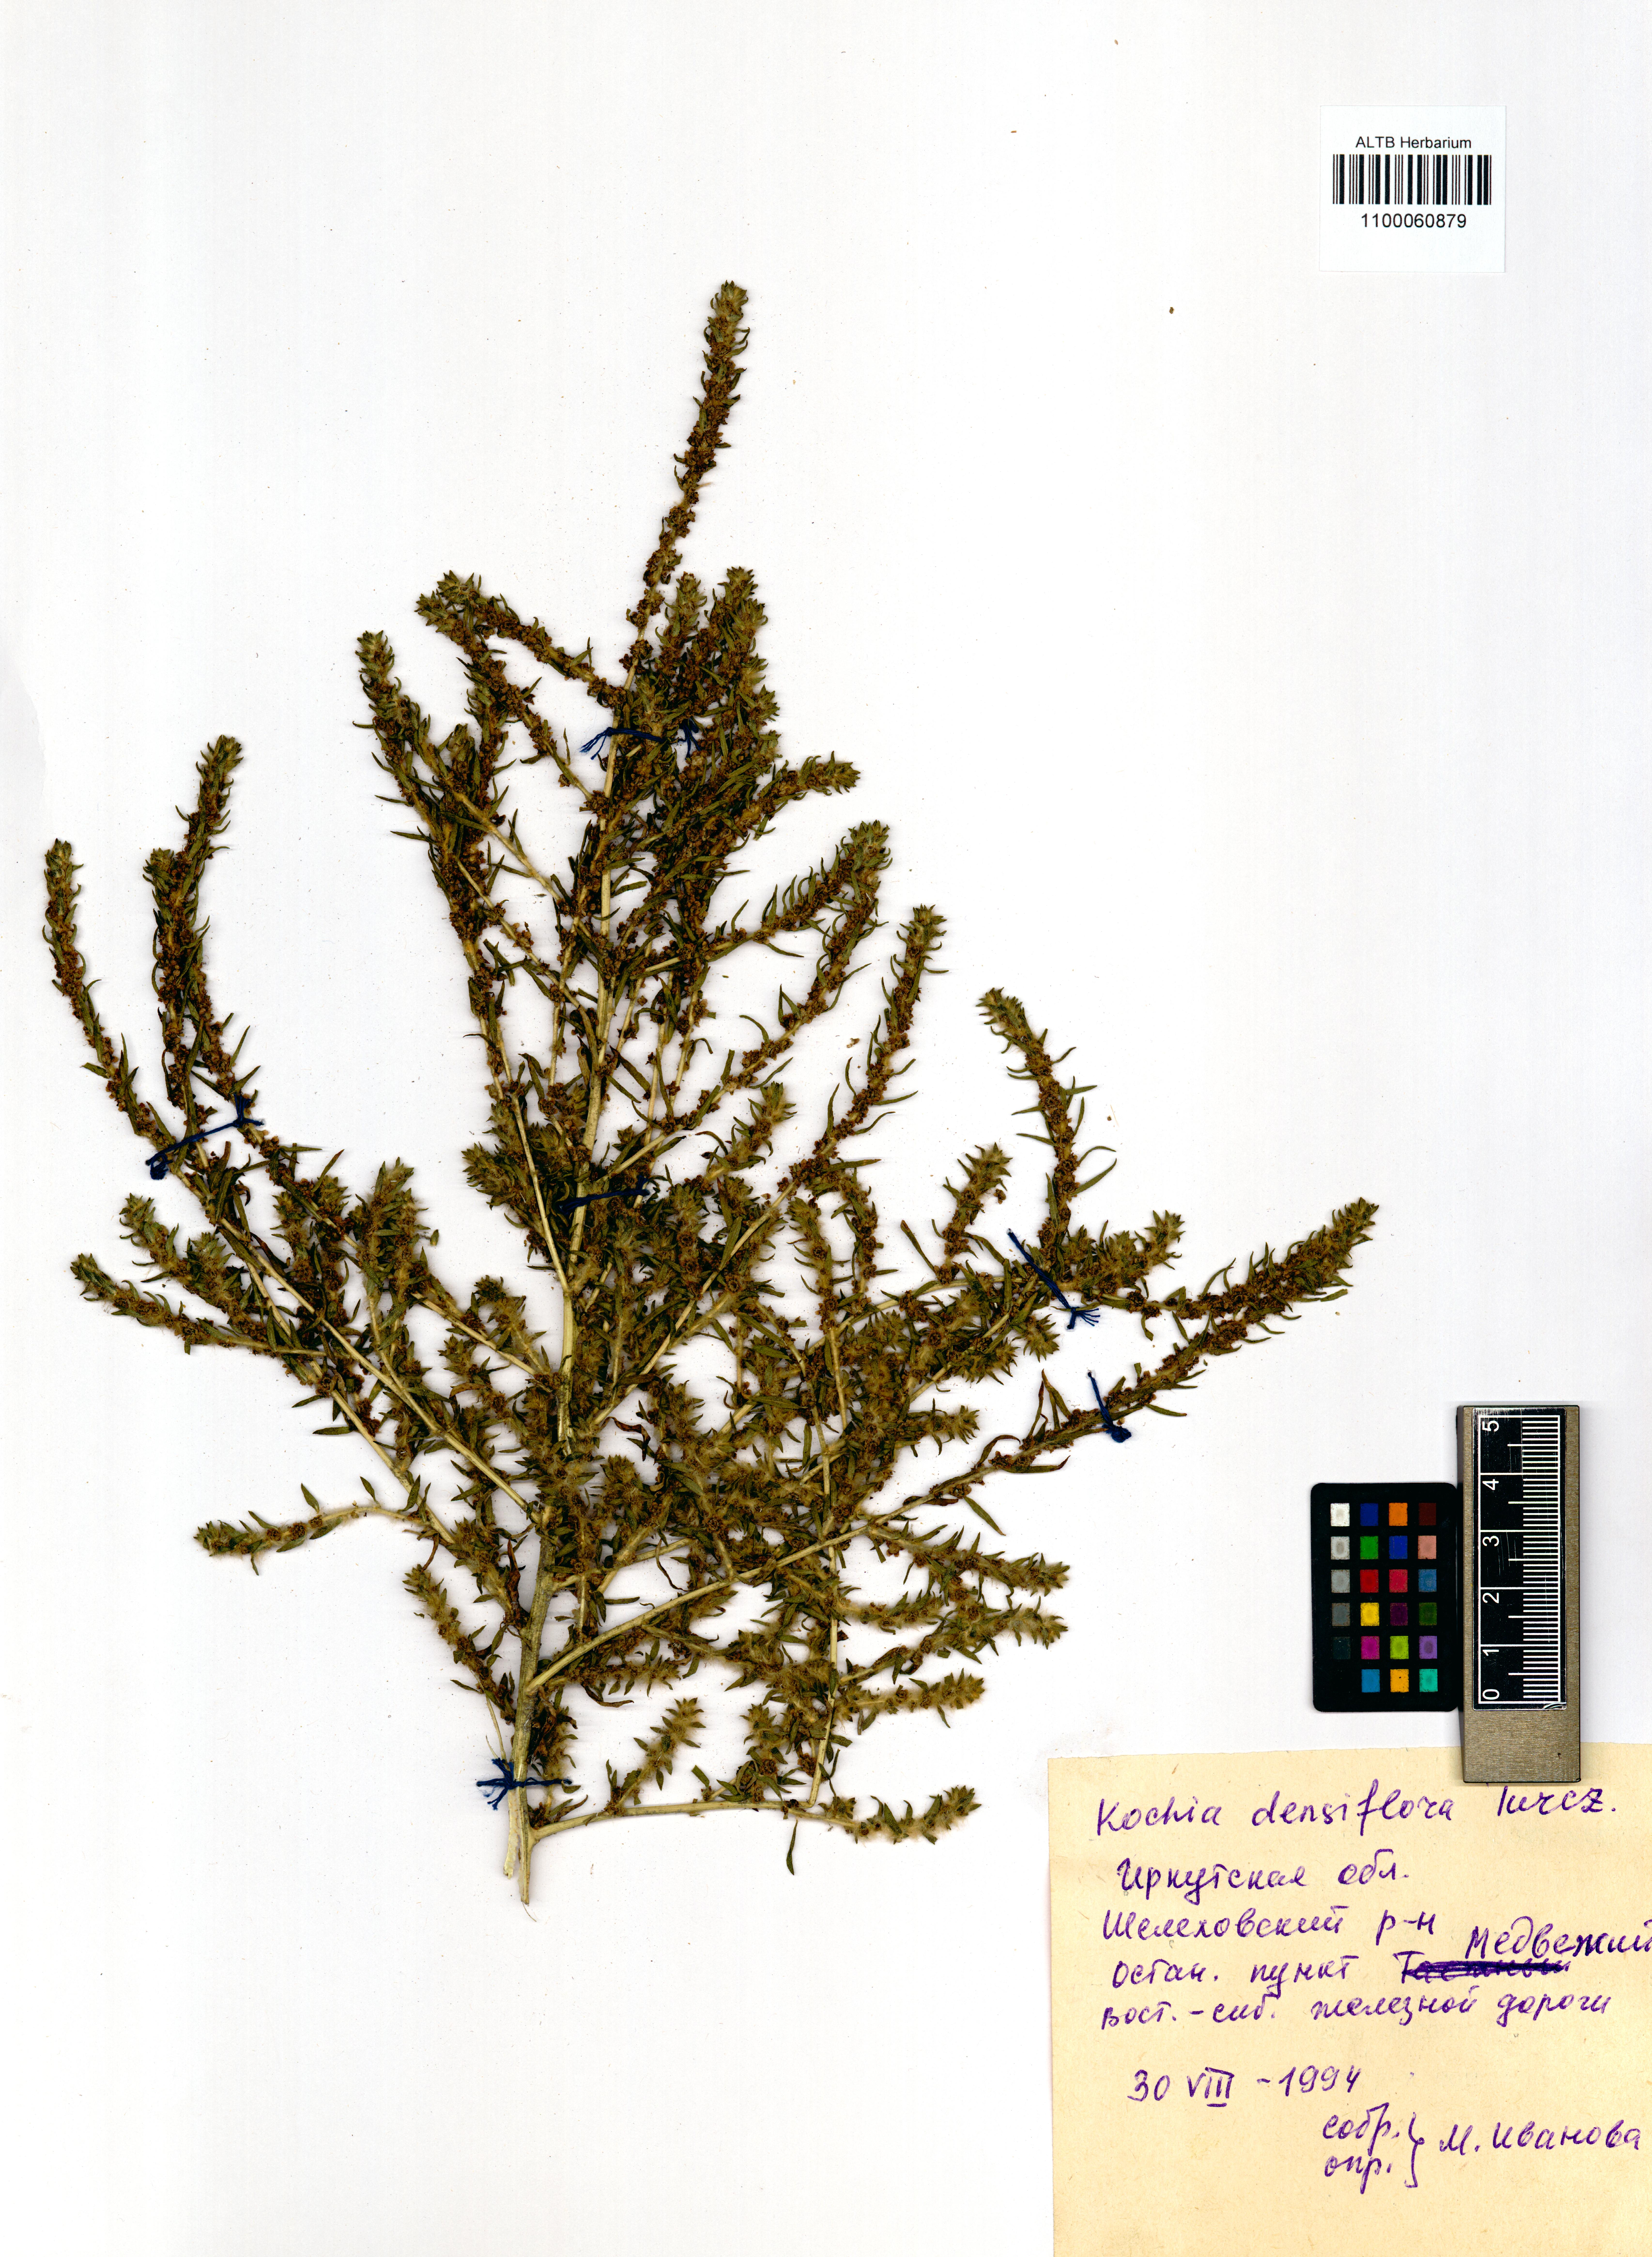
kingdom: Plantae
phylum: Tracheophyta
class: Magnoliopsida
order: Caryophyllales
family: Amaranthaceae
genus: Bassia
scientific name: Bassia scoparia
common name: Belvedere
